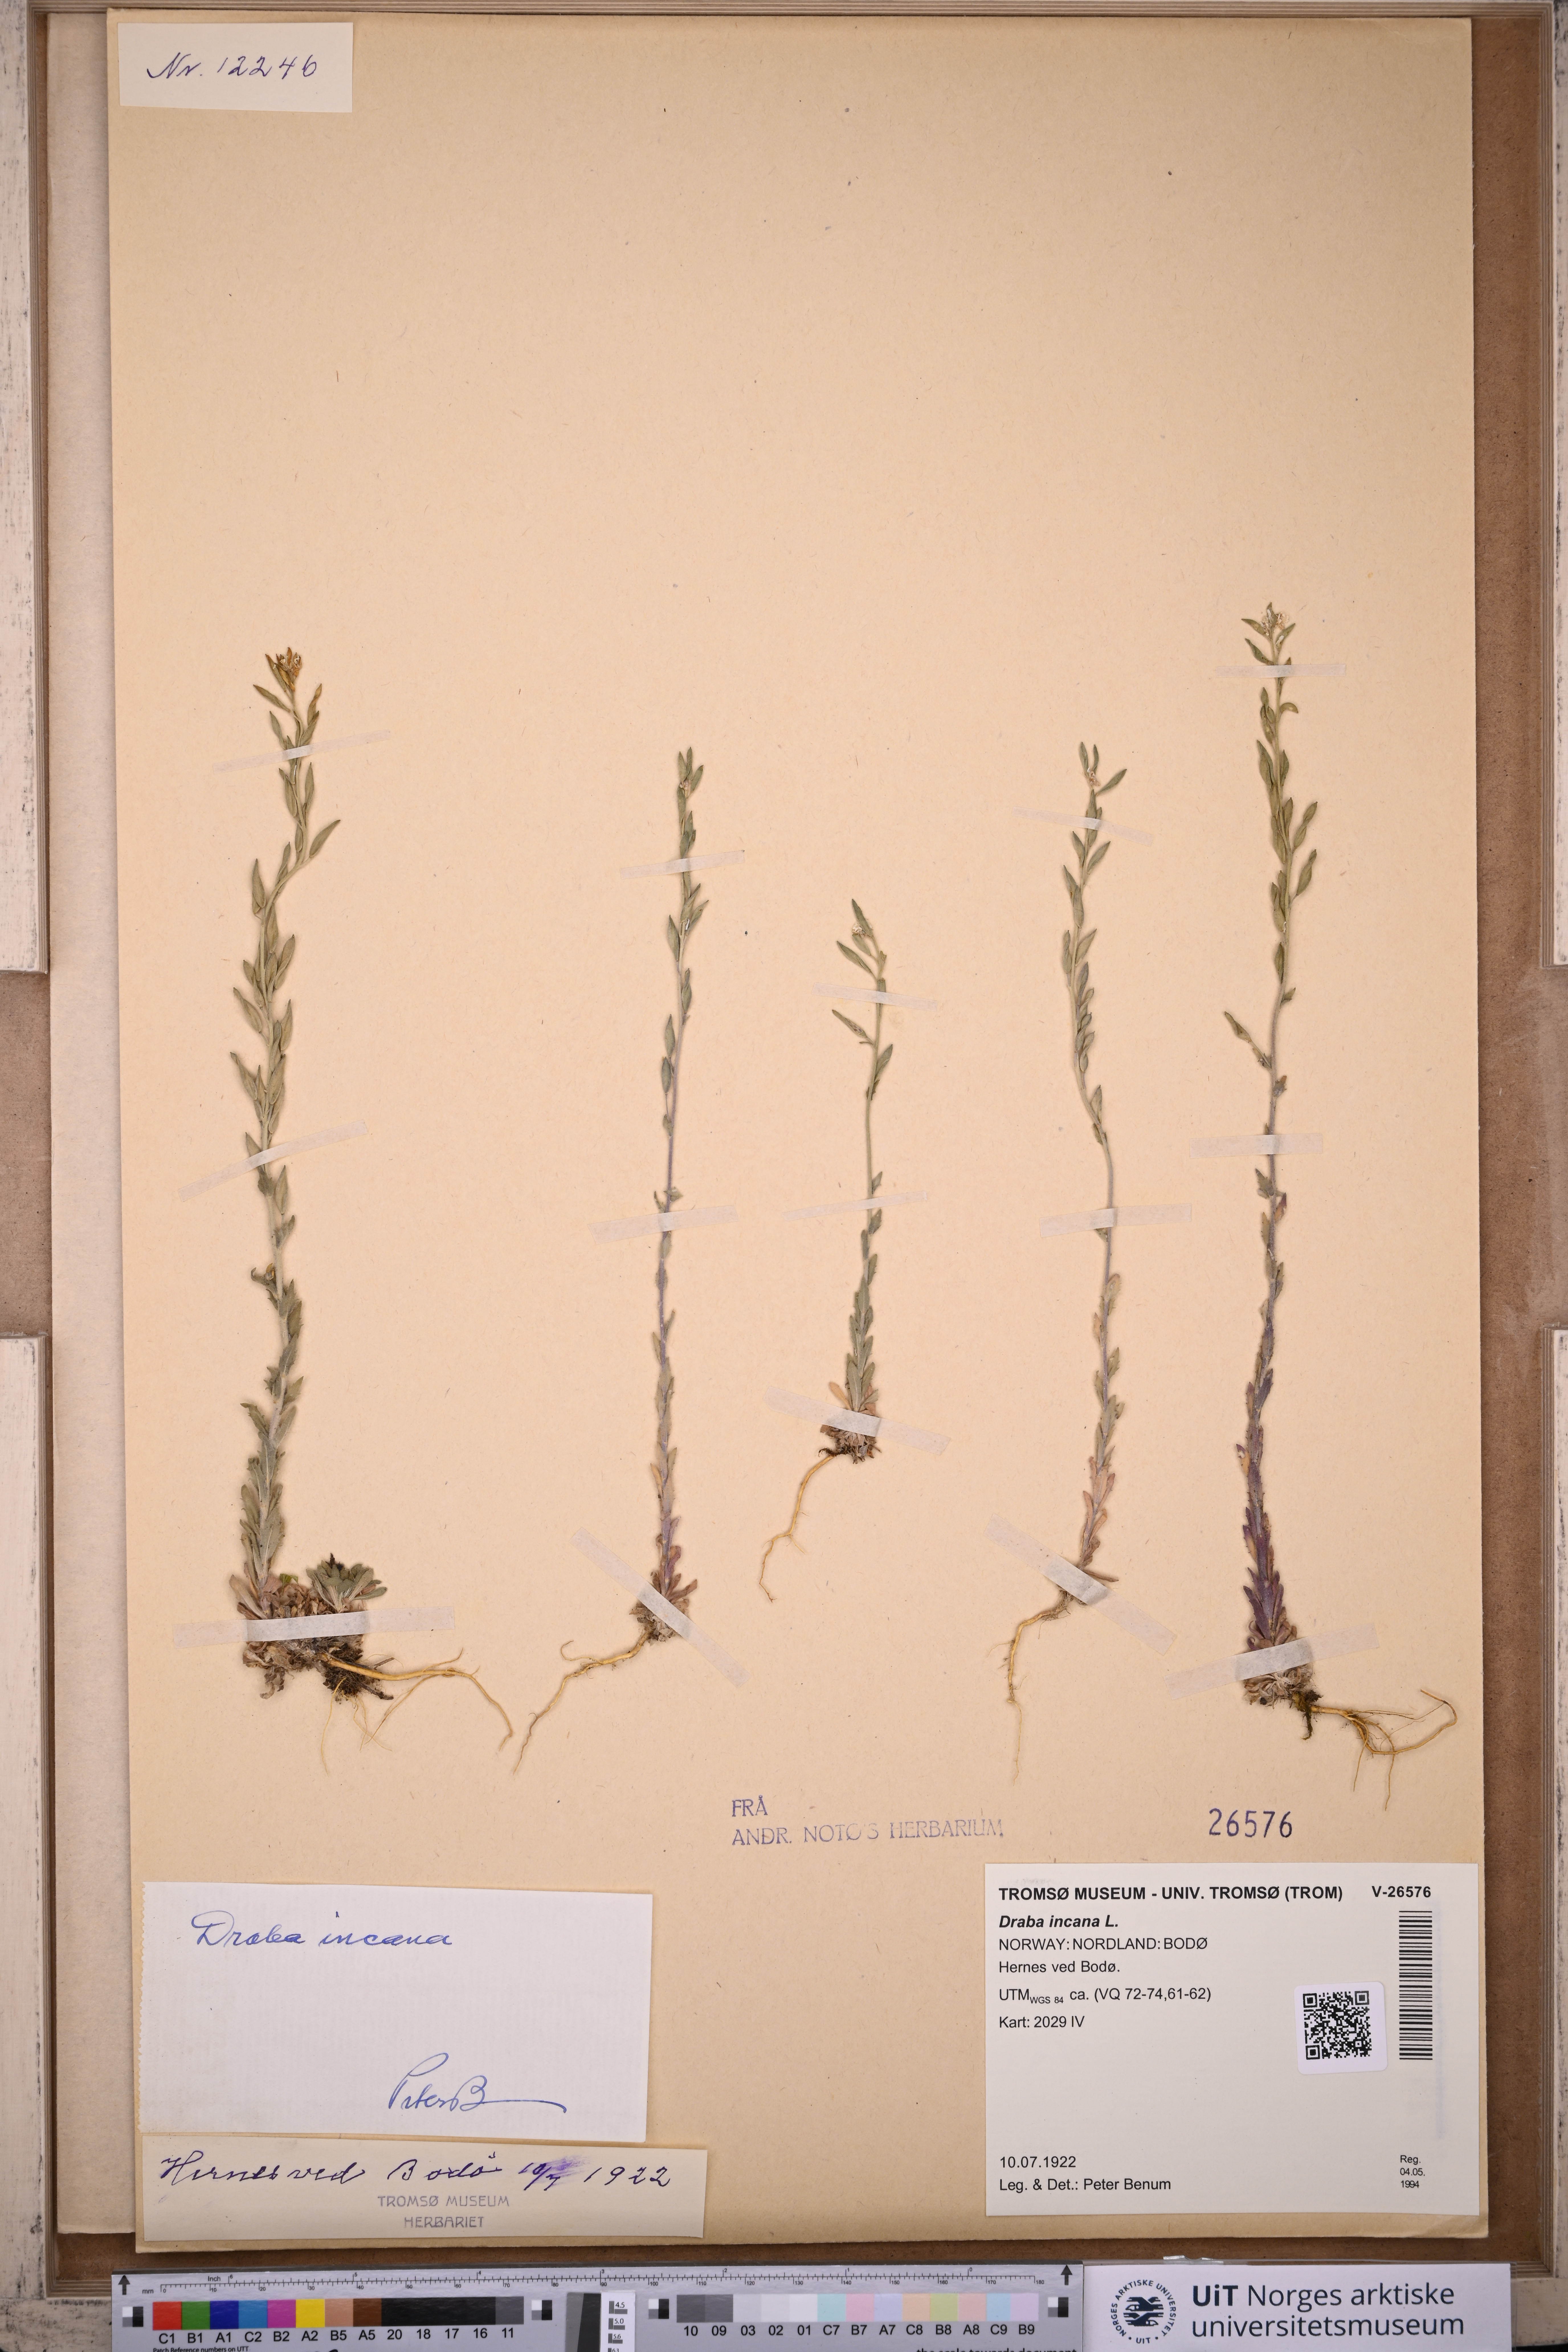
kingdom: Plantae
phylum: Tracheophyta
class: Magnoliopsida
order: Brassicales
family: Brassicaceae
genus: Draba
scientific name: Draba incana
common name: Hoary whitlow-grass
